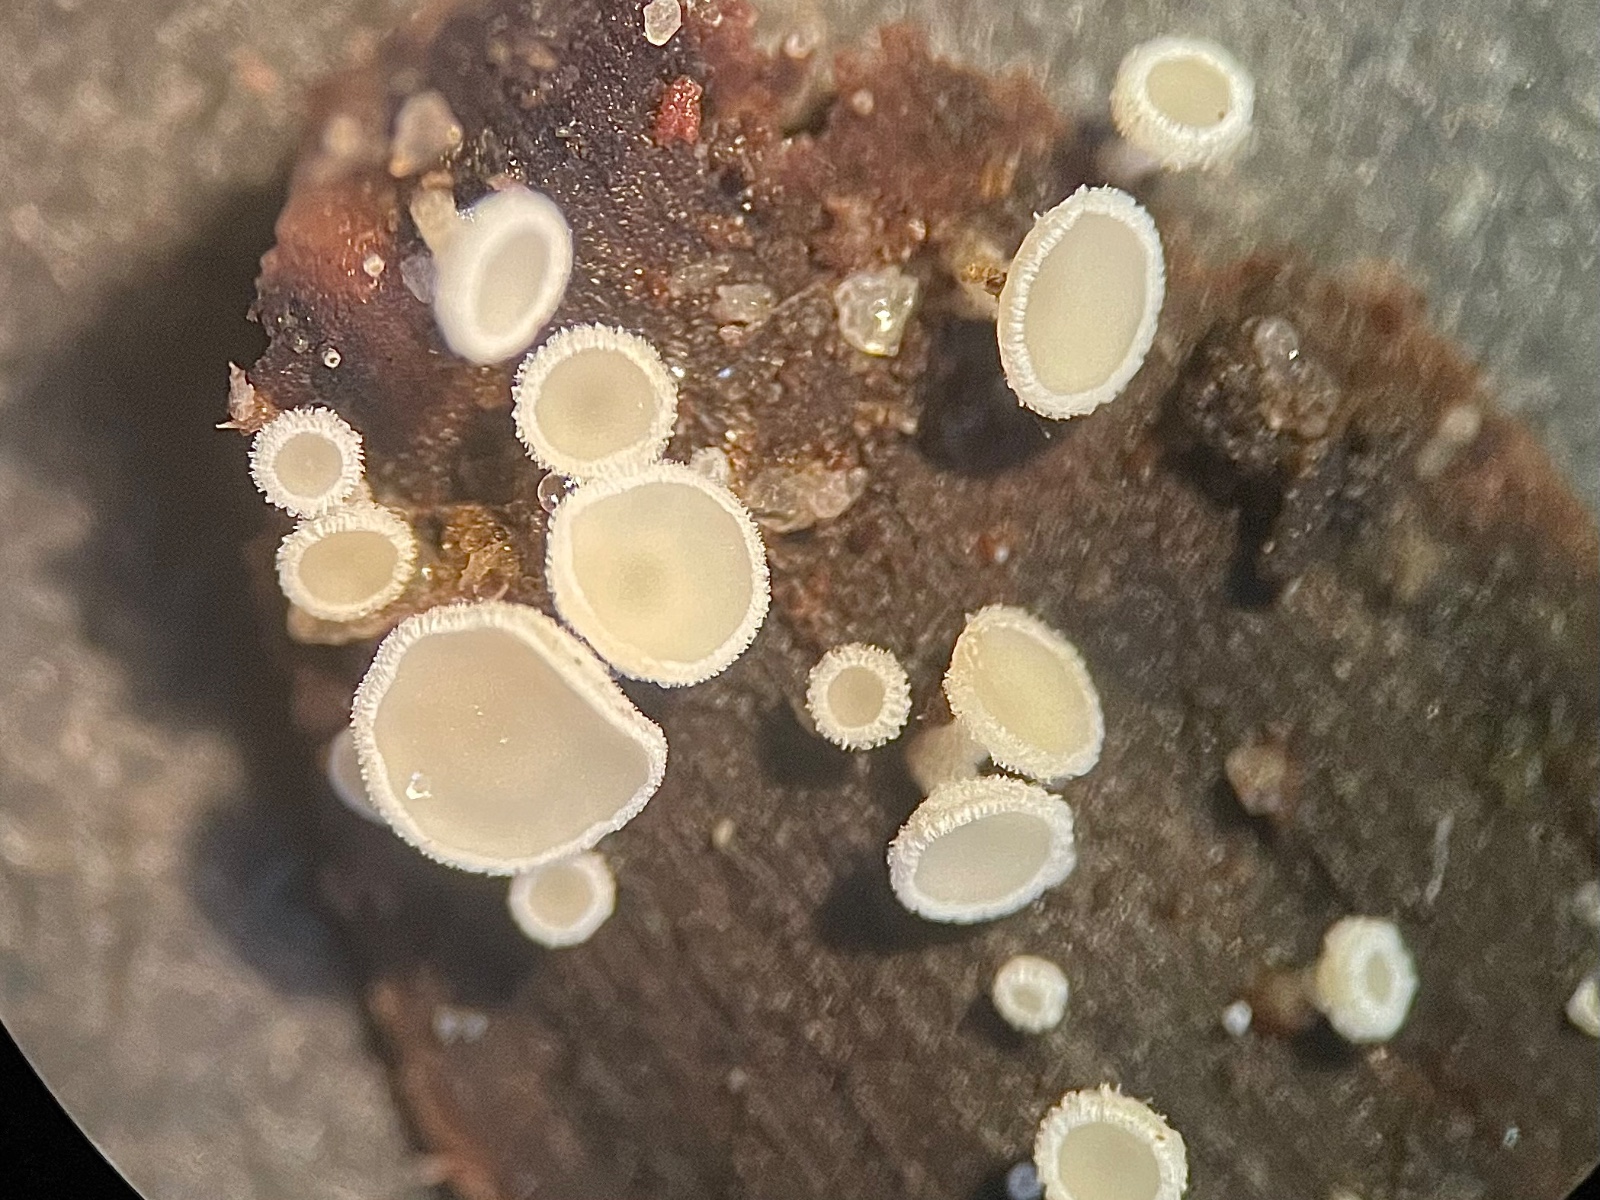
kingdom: Fungi
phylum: Ascomycota
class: Leotiomycetes
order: Helotiales
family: Lachnaceae
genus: Lachnum
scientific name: Lachnum
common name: frynseskive
